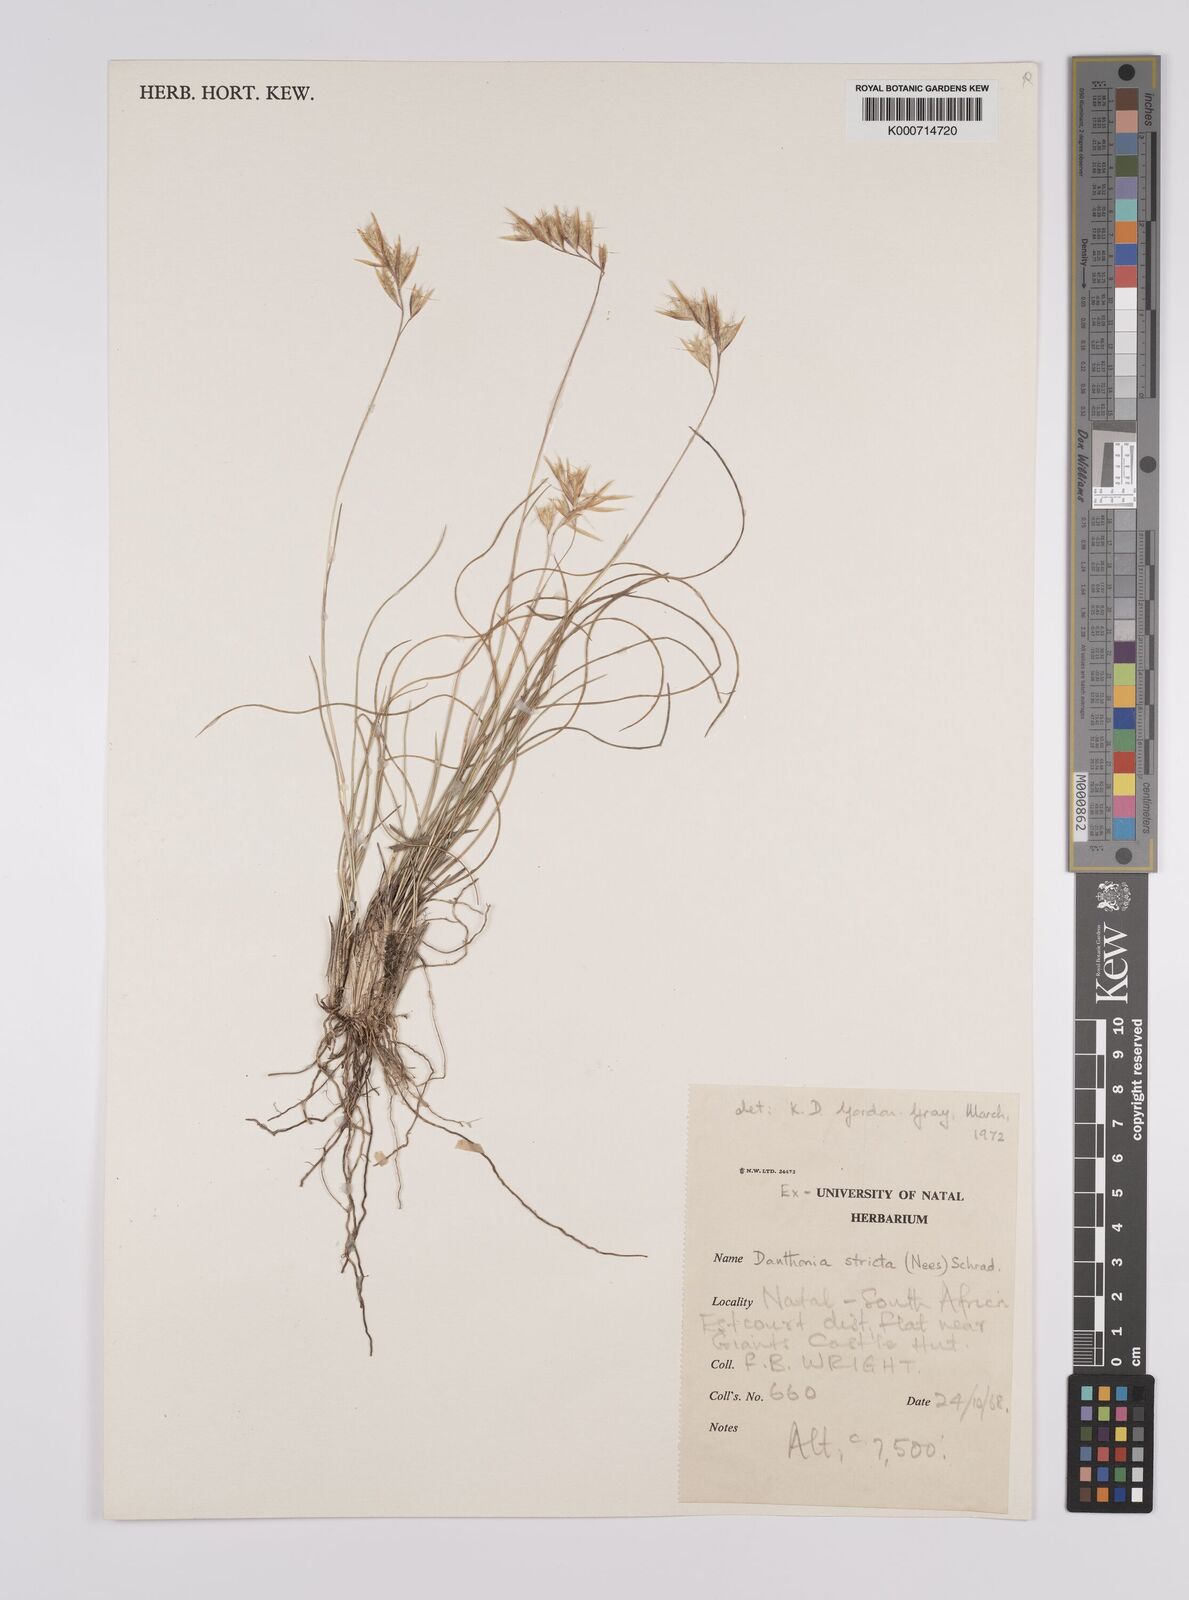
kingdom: Plantae
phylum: Tracheophyta
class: Liliopsida
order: Poales
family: Poaceae
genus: Rytidosperma
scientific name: Rytidosperma
